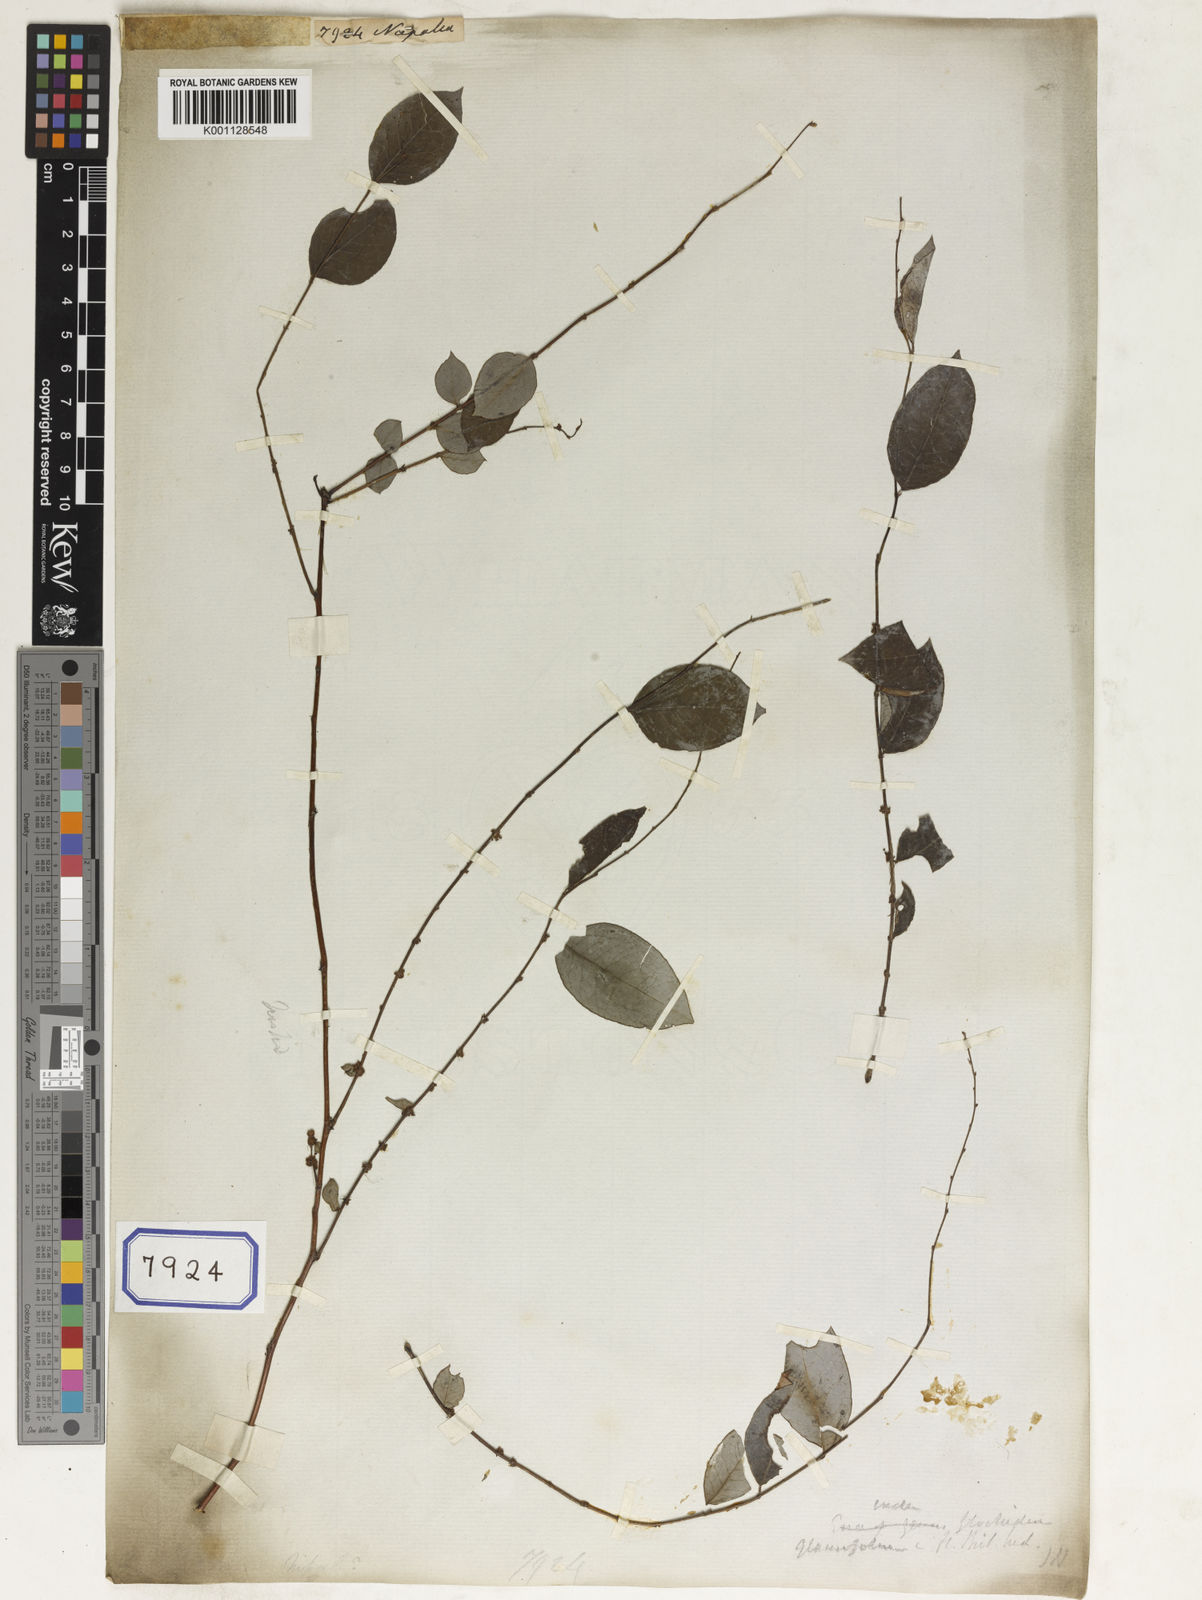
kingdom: Plantae
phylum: Tracheophyta
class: Magnoliopsida
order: Malpighiales
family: Euphorbiaceae
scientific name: Euphorbiaceae
